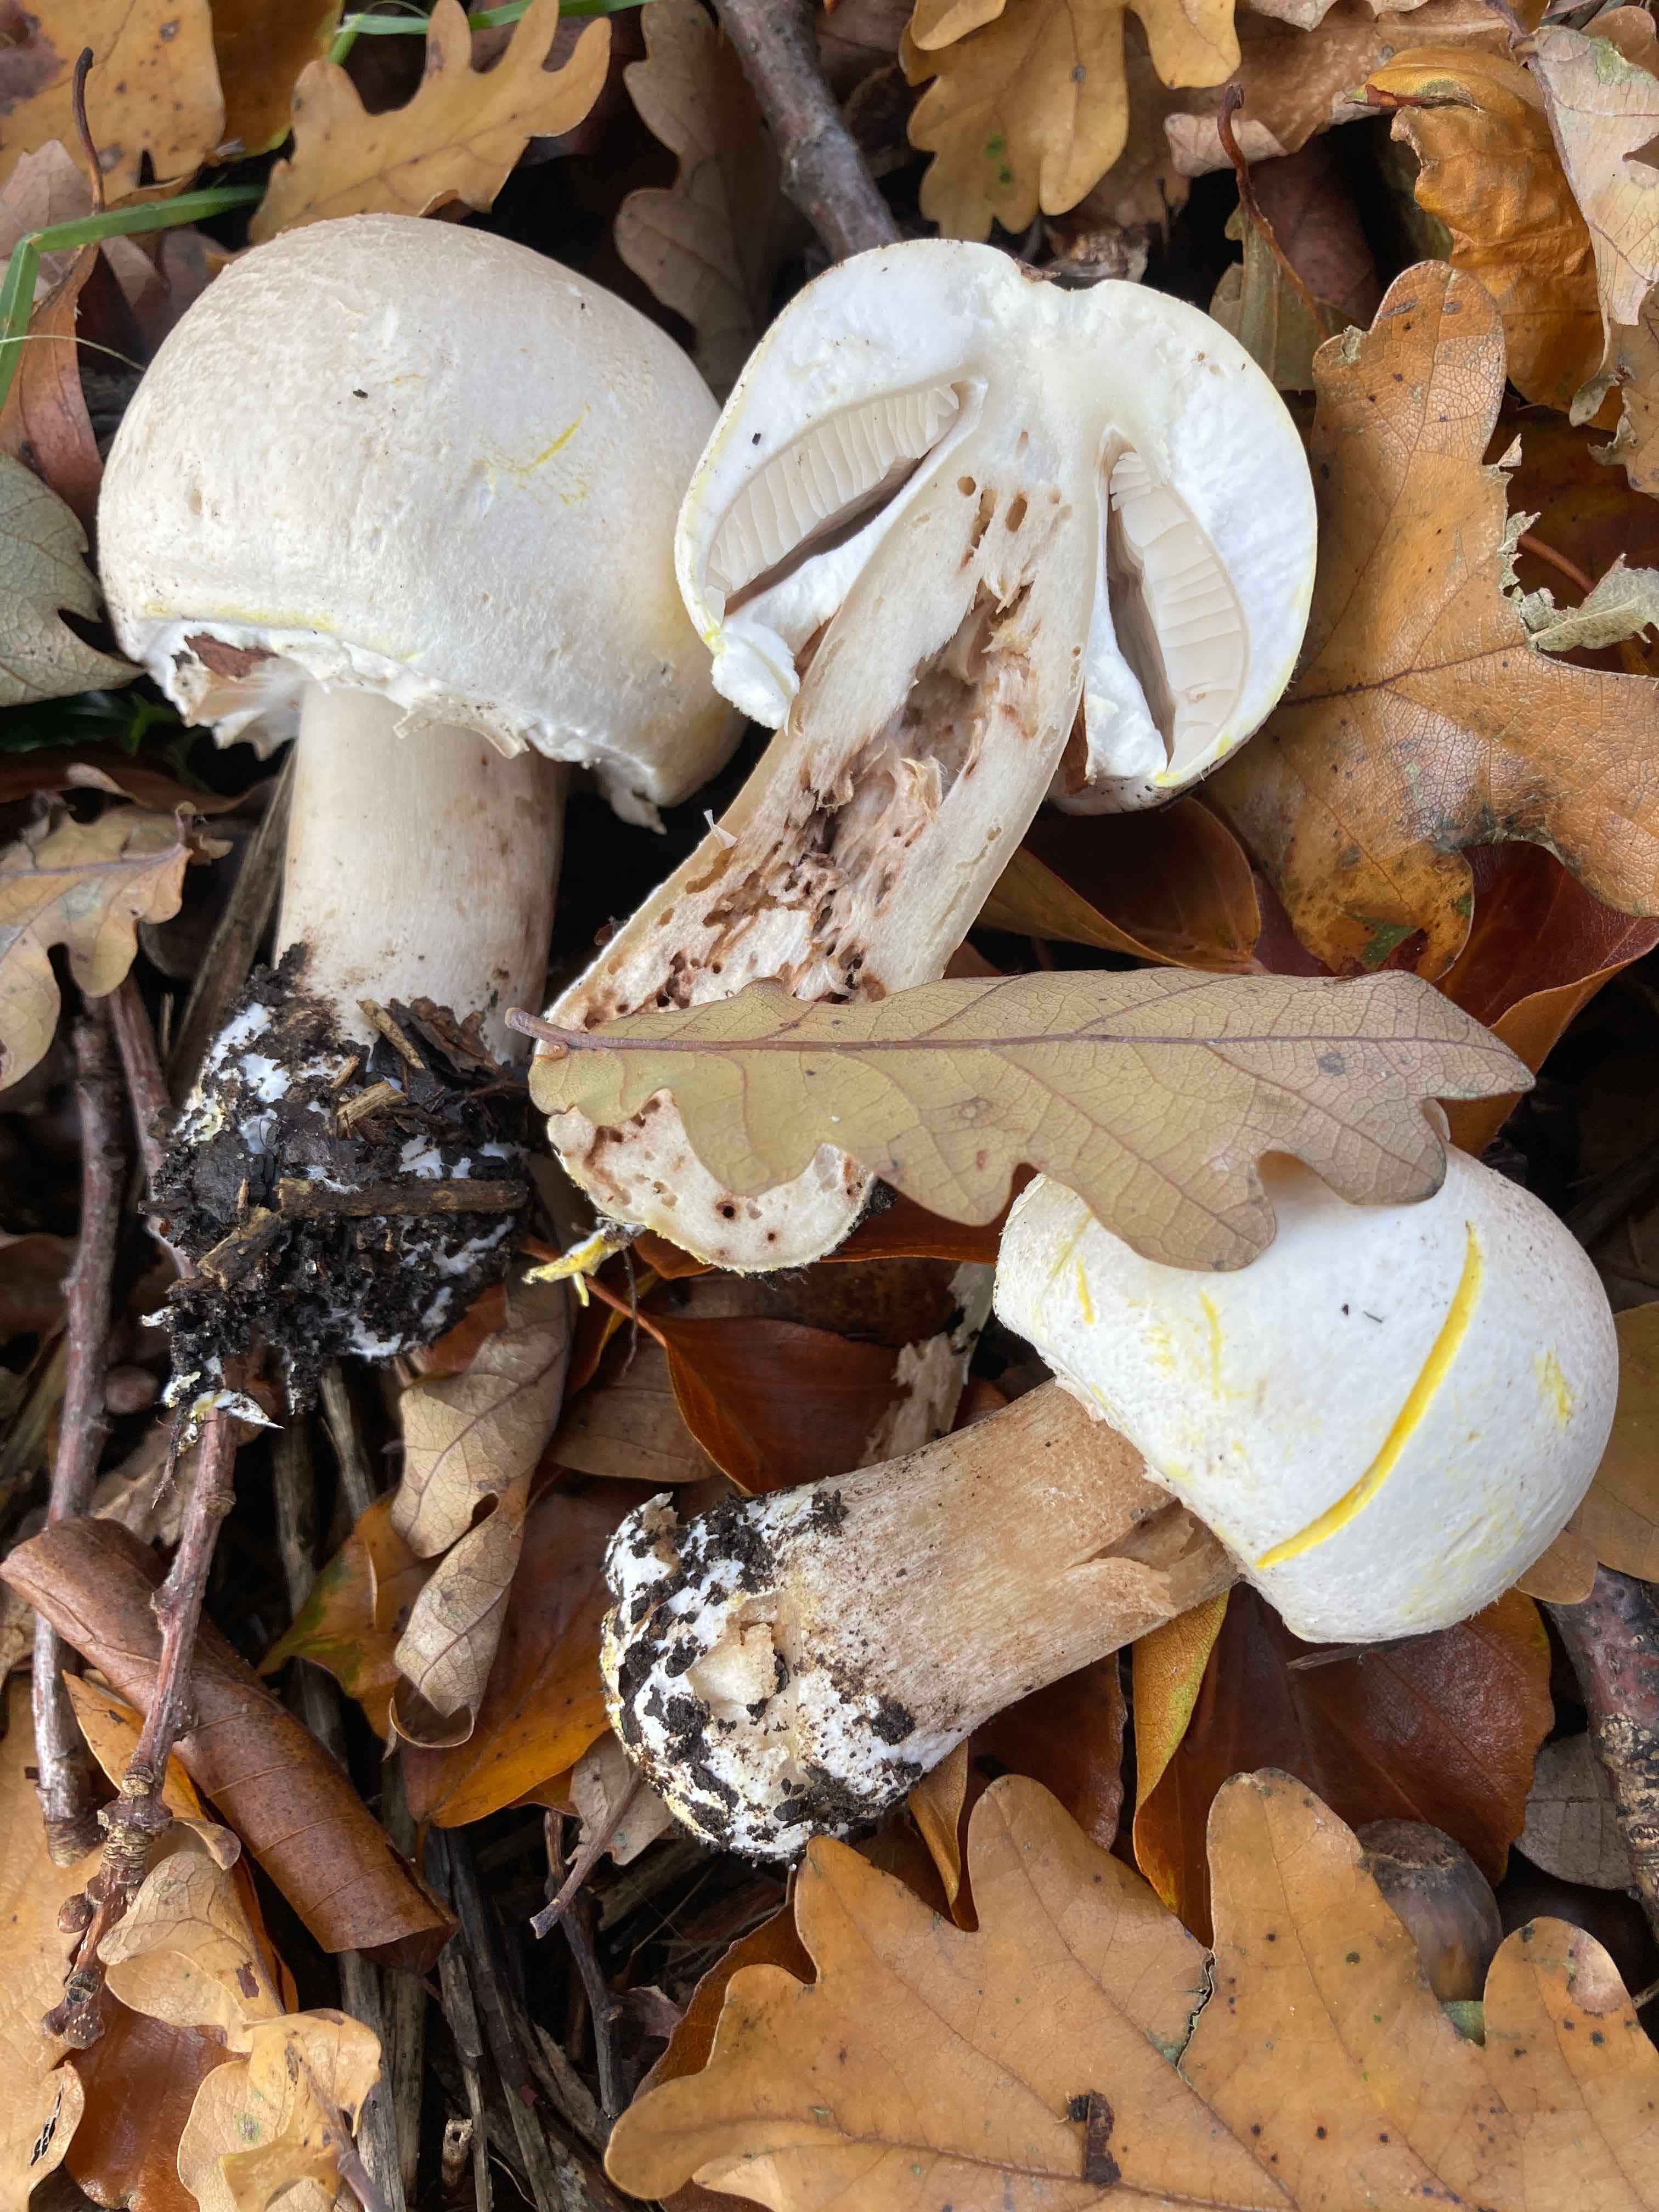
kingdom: Fungi
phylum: Basidiomycota
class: Agaricomycetes
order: Agaricales
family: Agaricaceae
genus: Agaricus
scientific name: Agaricus xanthodermus
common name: karbol-champignon
